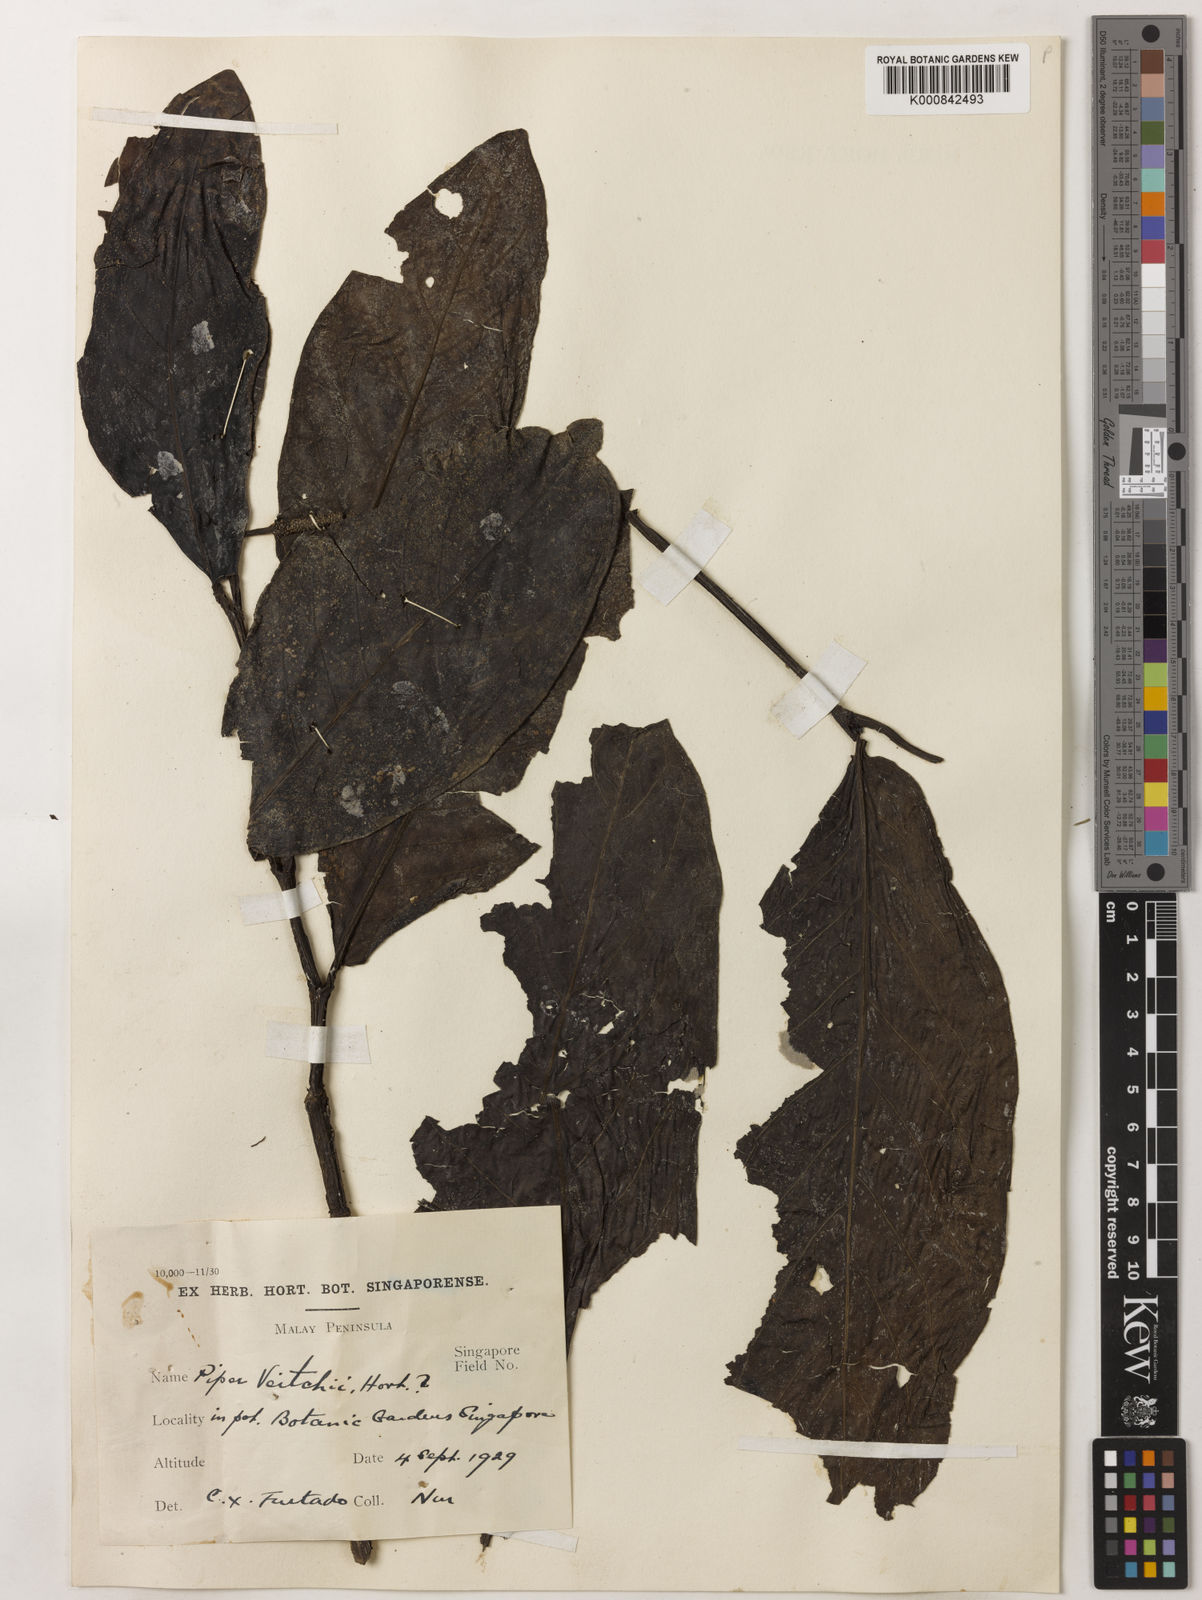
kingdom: Plantae
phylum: Tracheophyta
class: Magnoliopsida
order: Piperales
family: Piperaceae
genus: Piper
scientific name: Piper
